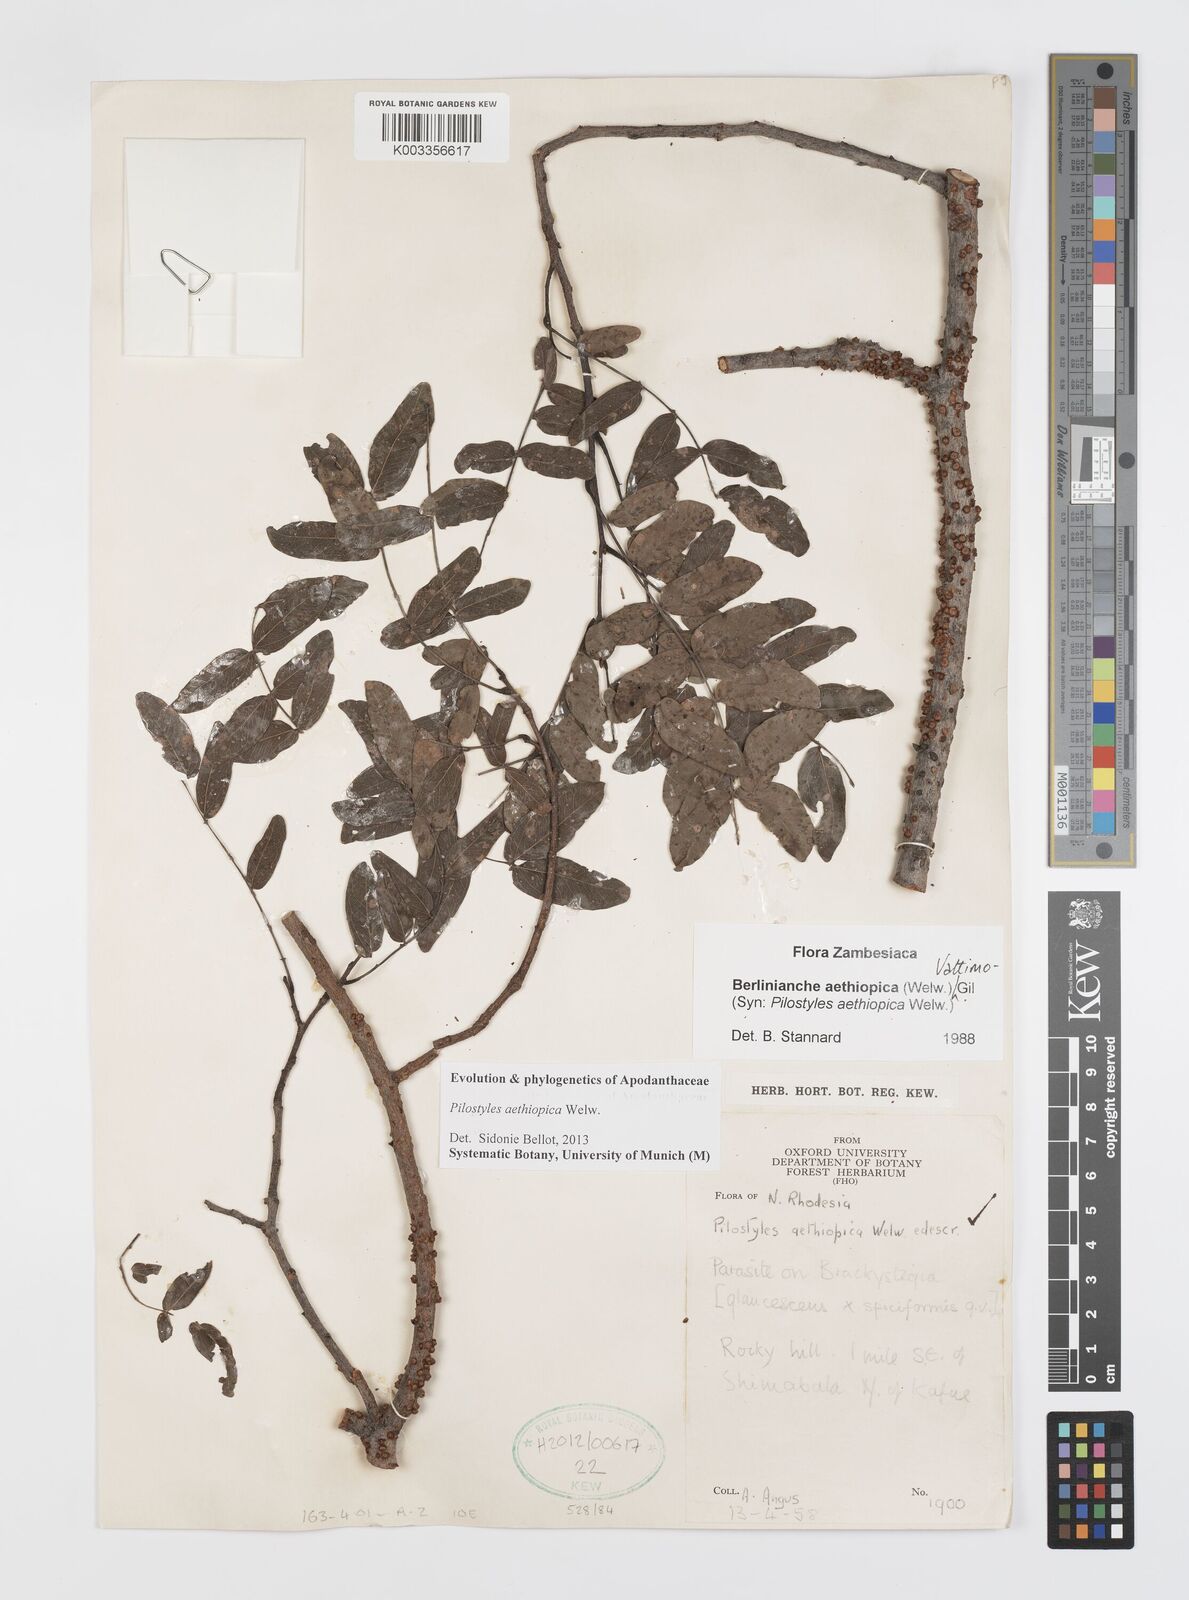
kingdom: Plantae
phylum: Tracheophyta
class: Magnoliopsida
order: Cucurbitales
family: Apodanthaceae
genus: Pilostyles
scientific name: Pilostyles aethiopica
